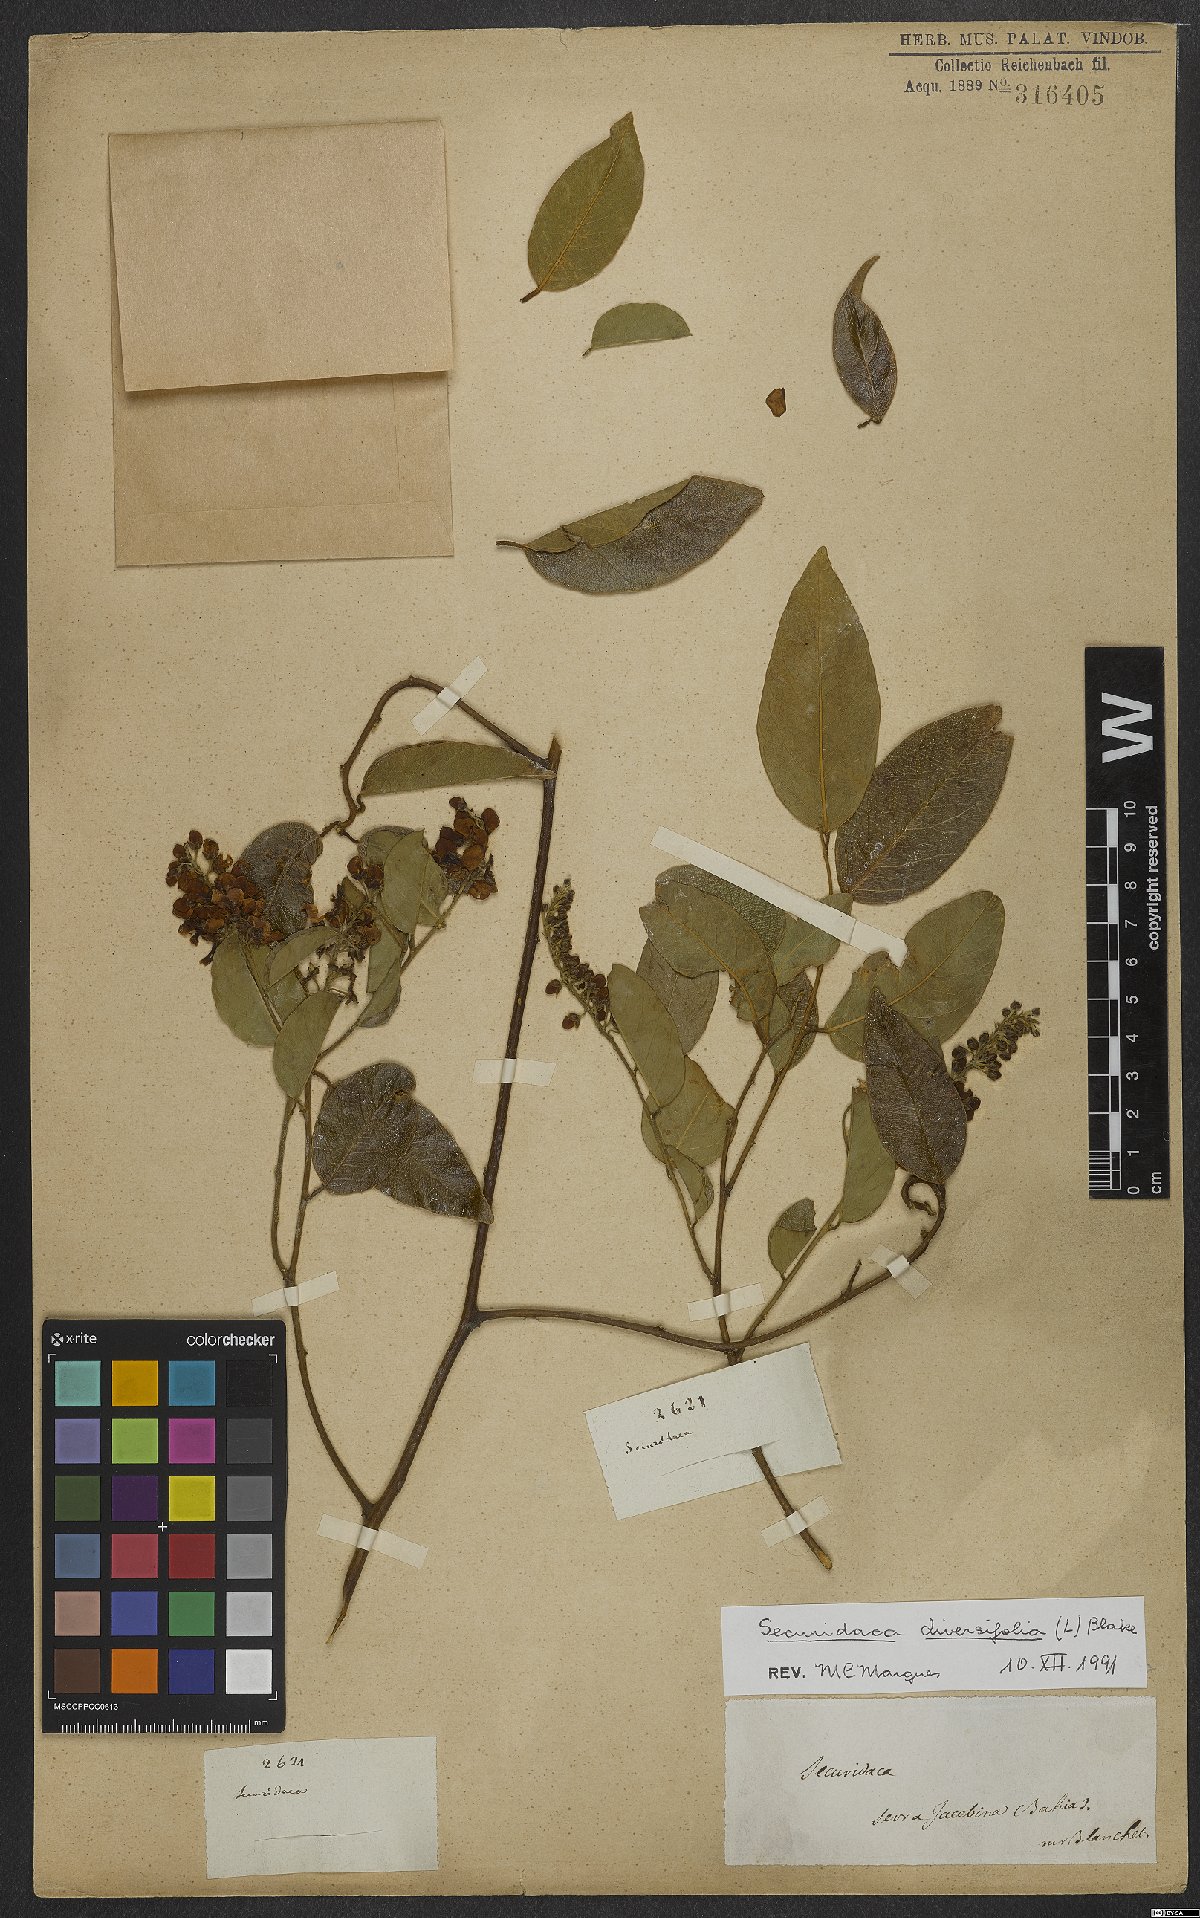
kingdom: Plantae
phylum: Tracheophyta
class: Magnoliopsida
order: Fabales
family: Polygalaceae
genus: Securidaca
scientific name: Securidaca diversifolia
